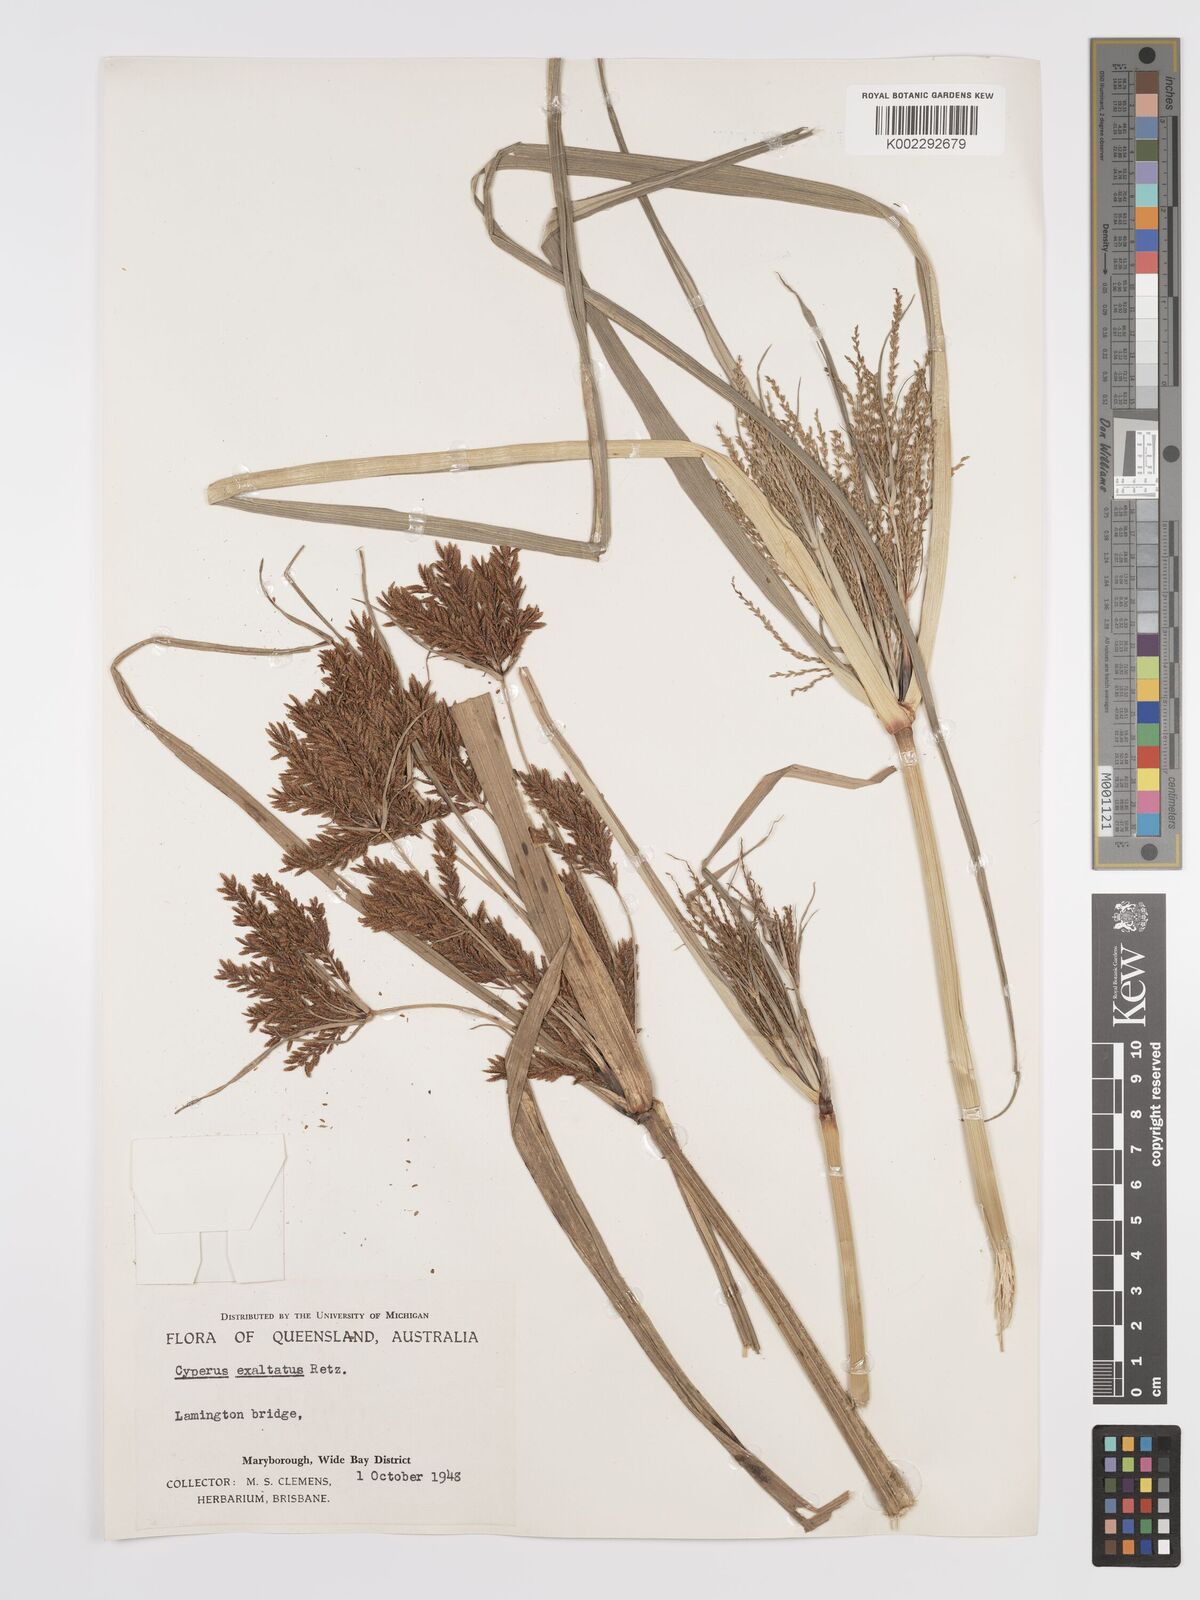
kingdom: Plantae
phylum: Tracheophyta
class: Liliopsida
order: Poales
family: Cyperaceae
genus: Cyperus
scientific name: Cyperus exaltatus
